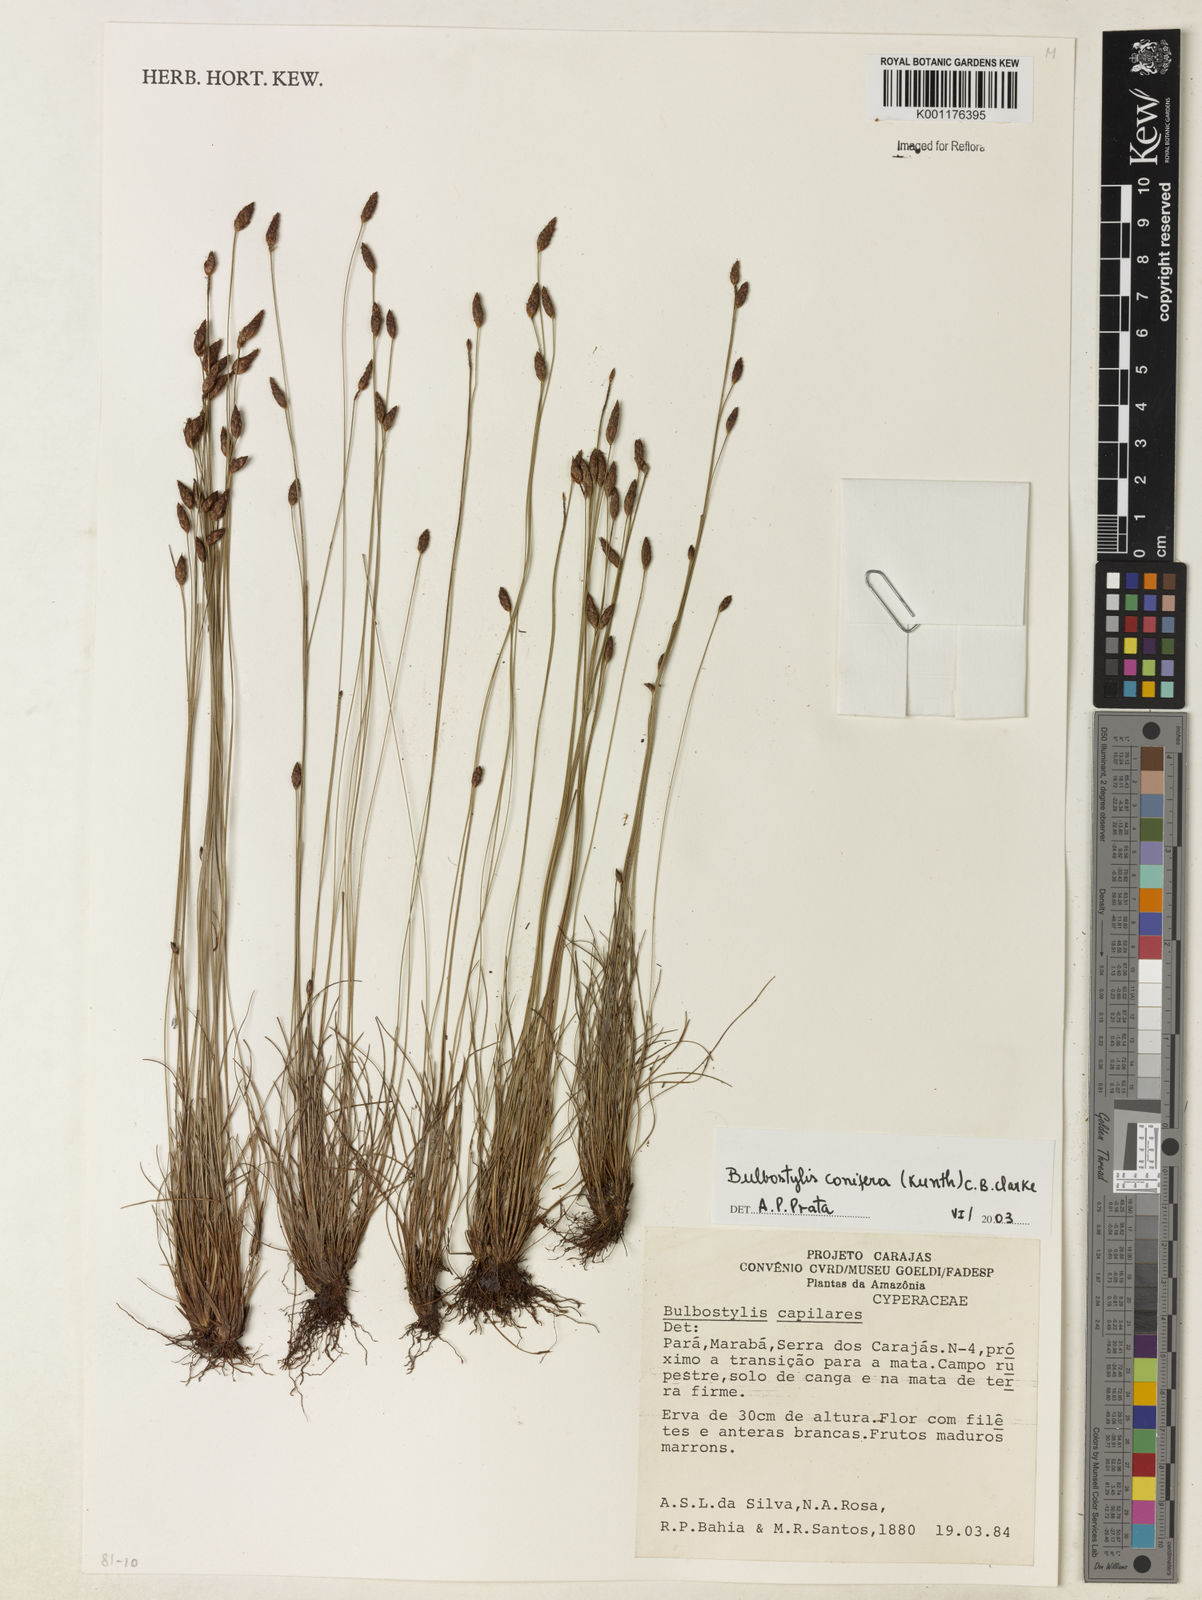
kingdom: Plantae
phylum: Tracheophyta
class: Liliopsida
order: Poales
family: Cyperaceae
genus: Bulbostylis
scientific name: Bulbostylis conifera
